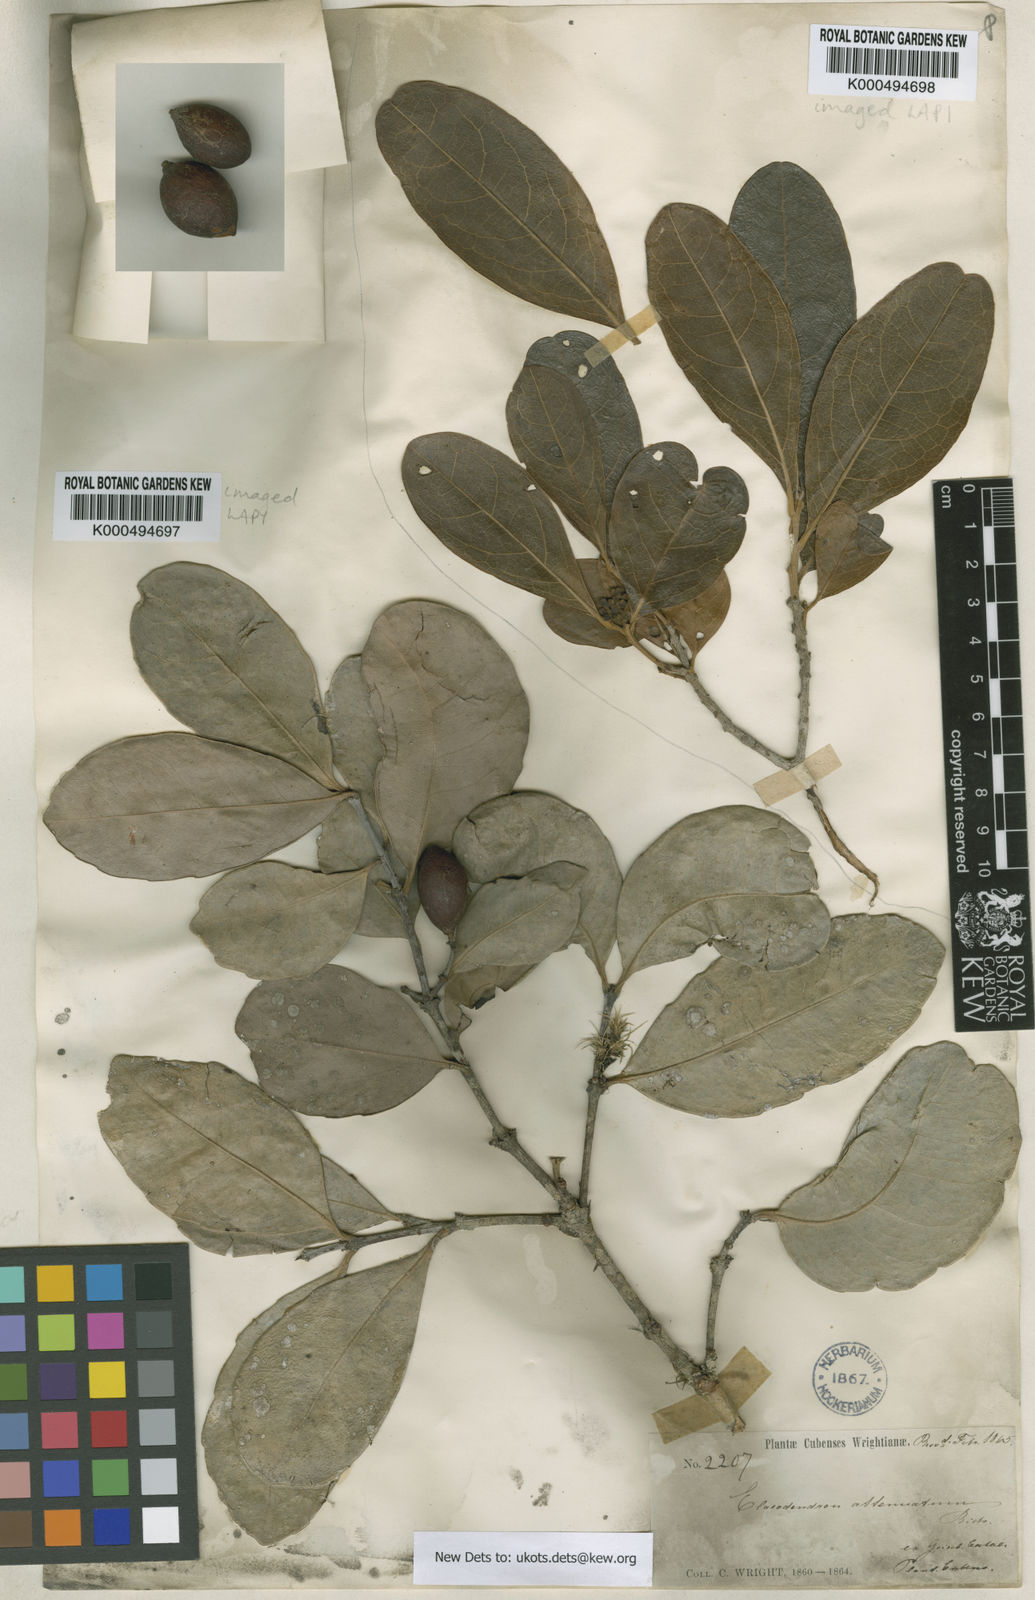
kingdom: Plantae
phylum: Tracheophyta
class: Magnoliopsida
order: Celastrales
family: Celastraceae
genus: Elaeodendron
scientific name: Elaeodendron xylocarpum
